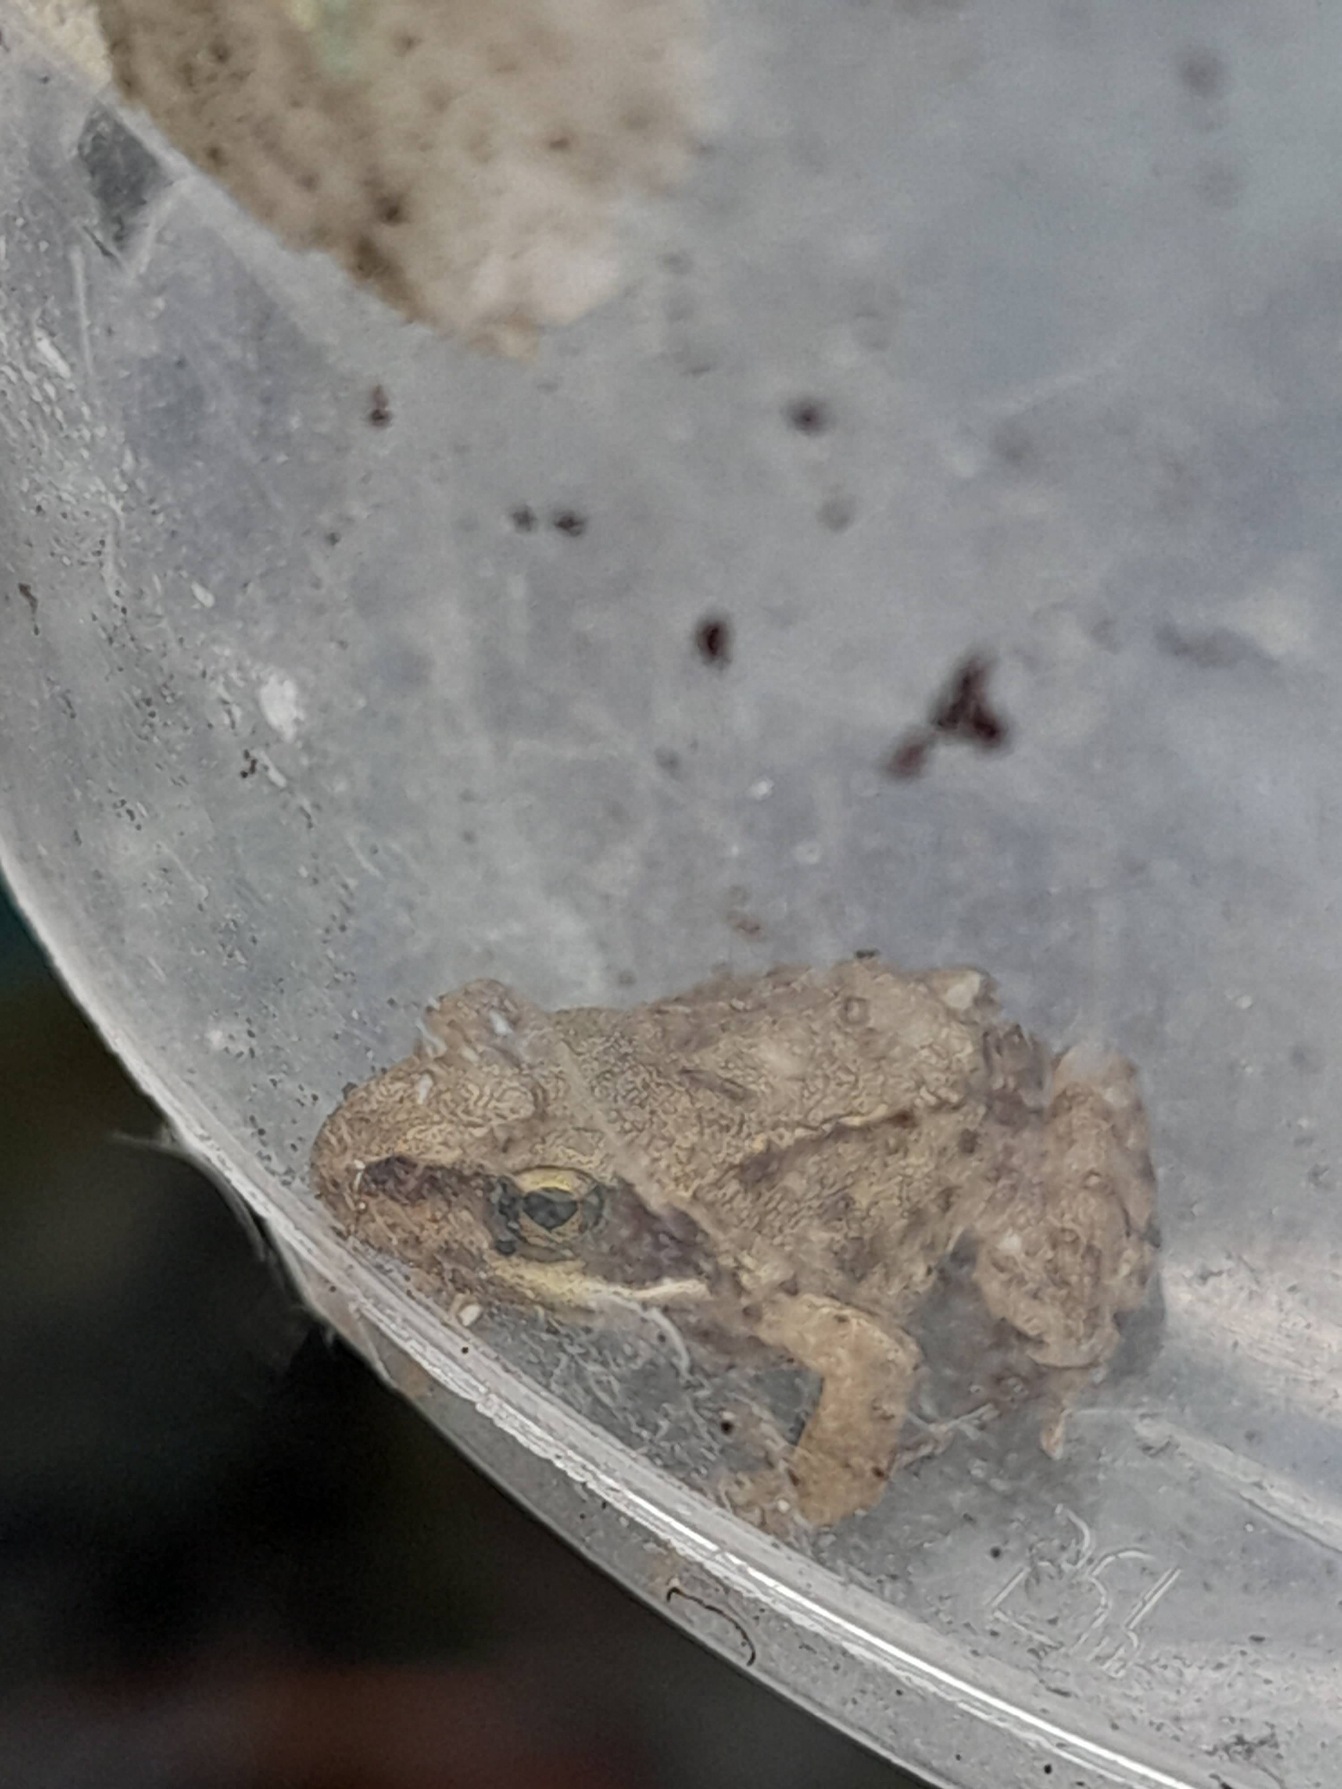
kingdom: Animalia
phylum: Chordata
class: Amphibia
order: Anura
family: Ranidae
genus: Rana
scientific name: Rana temporaria
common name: Butsnudet frø
